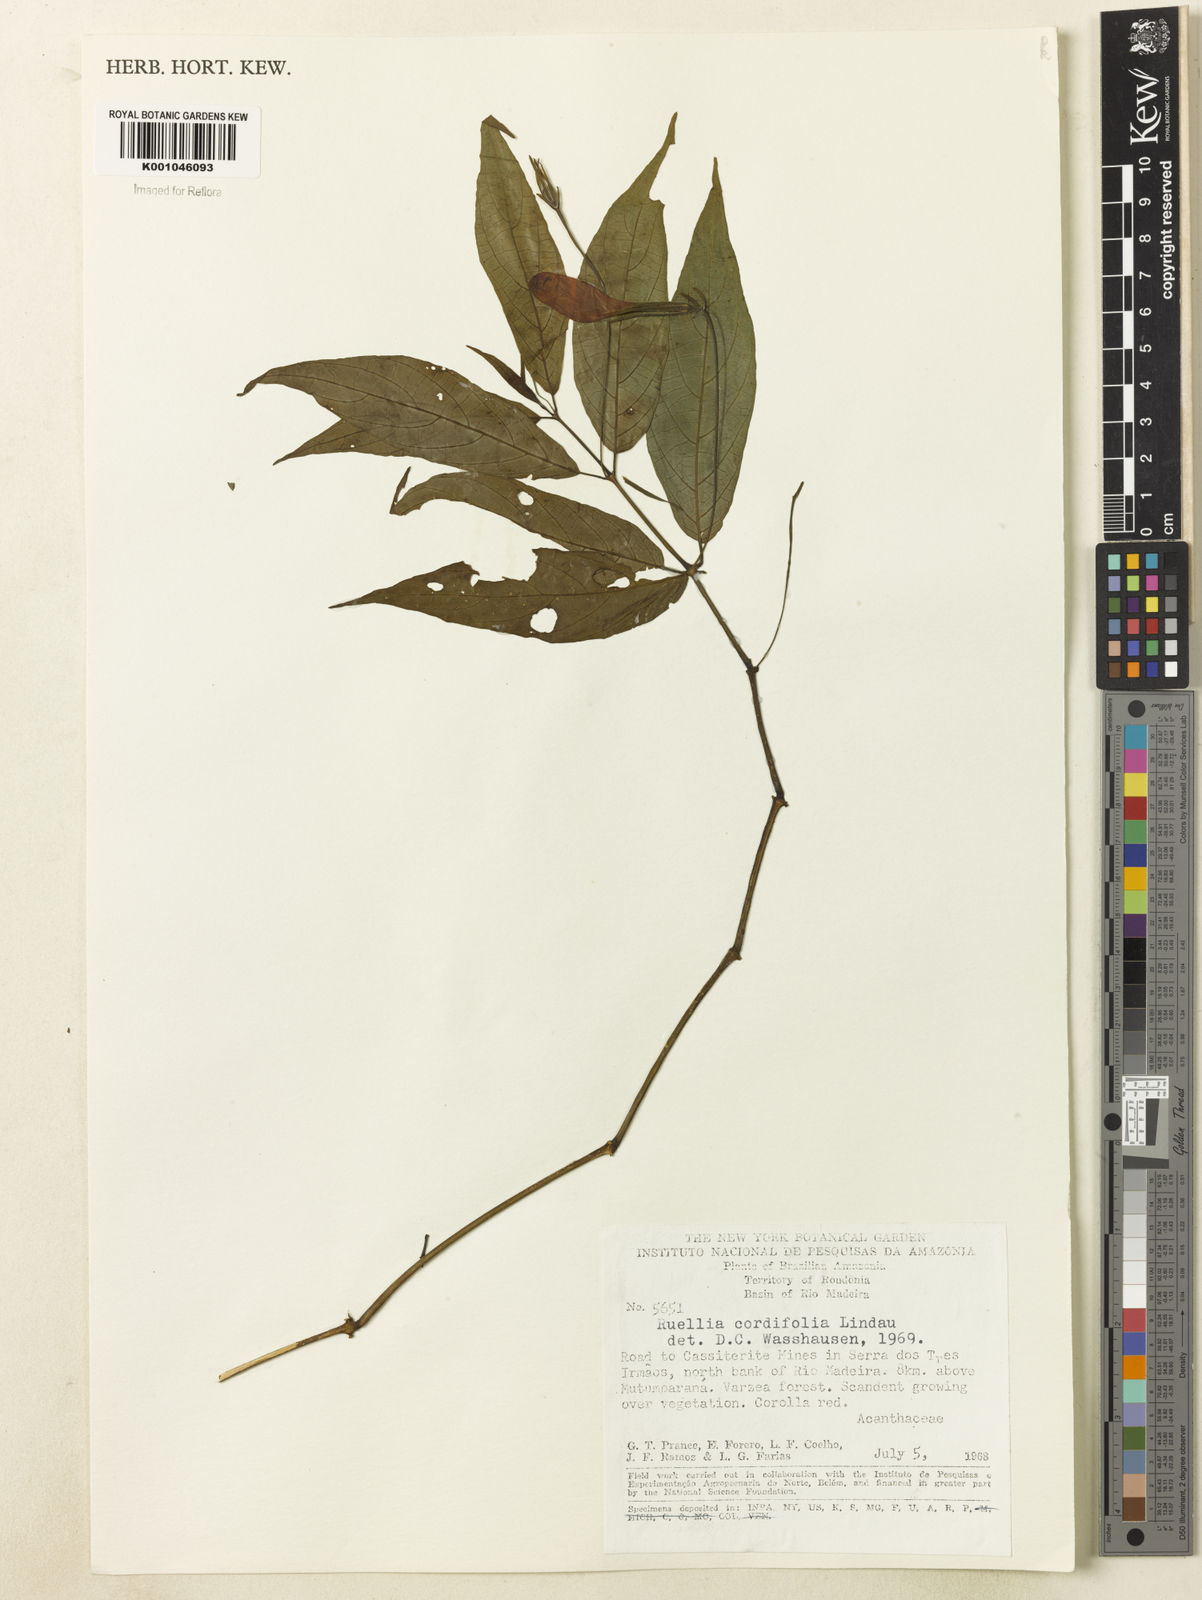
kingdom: Plantae
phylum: Tracheophyta
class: Magnoliopsida
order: Lamiales
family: Acanthaceae
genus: Ruellia
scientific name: Ruellia inflata
